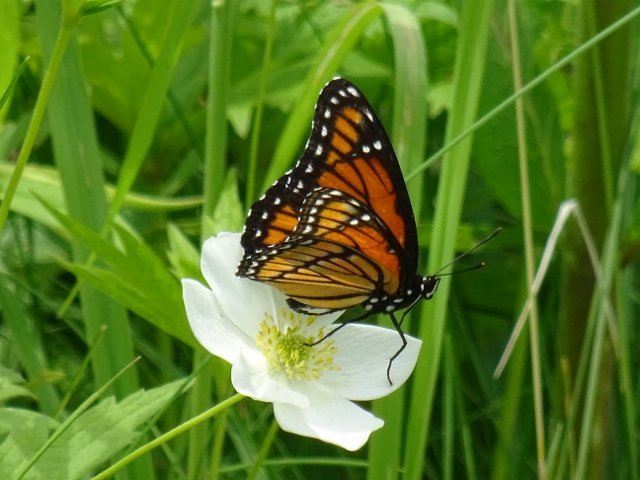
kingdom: Animalia
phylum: Arthropoda
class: Insecta
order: Lepidoptera
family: Nymphalidae
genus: Limenitis
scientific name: Limenitis archippus
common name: Viceroy
